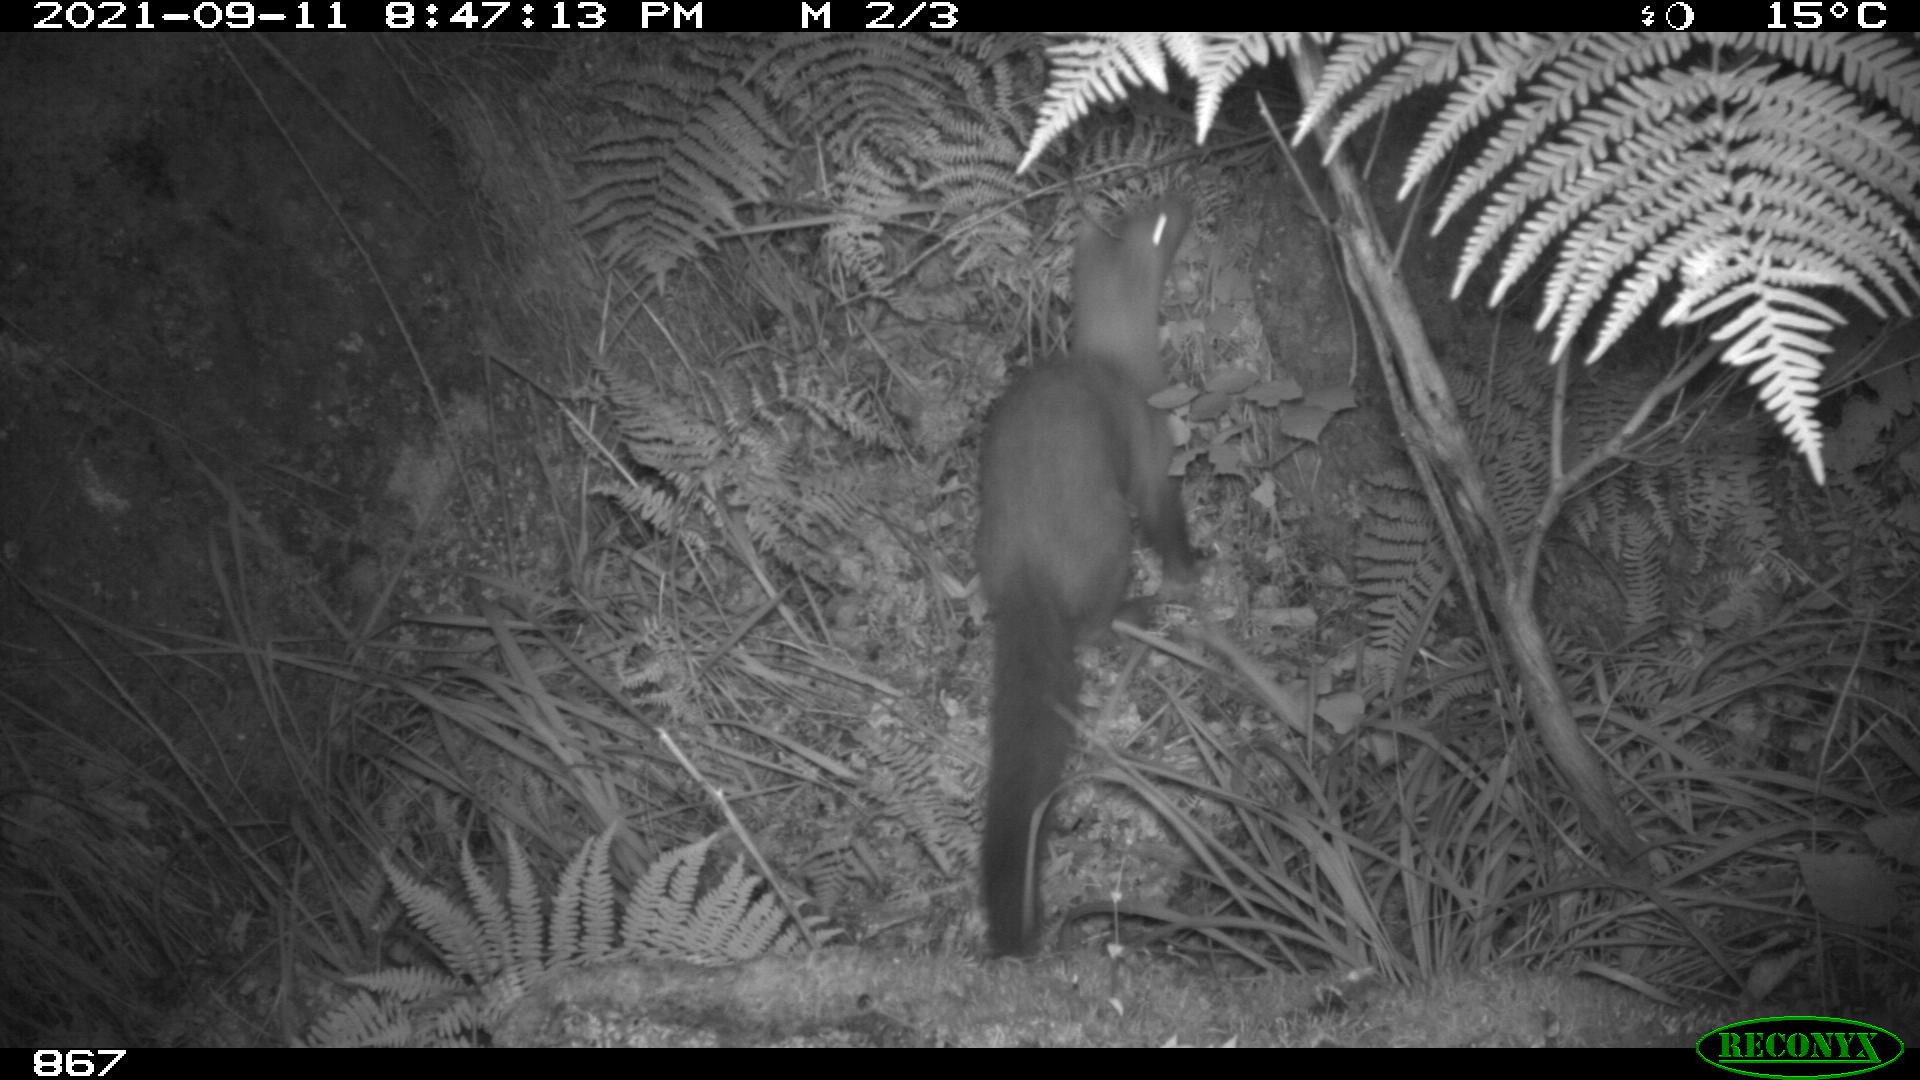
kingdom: Animalia
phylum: Chordata
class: Mammalia
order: Carnivora
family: Mustelidae
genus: Martes
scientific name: Martes foina
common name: Beech marten
